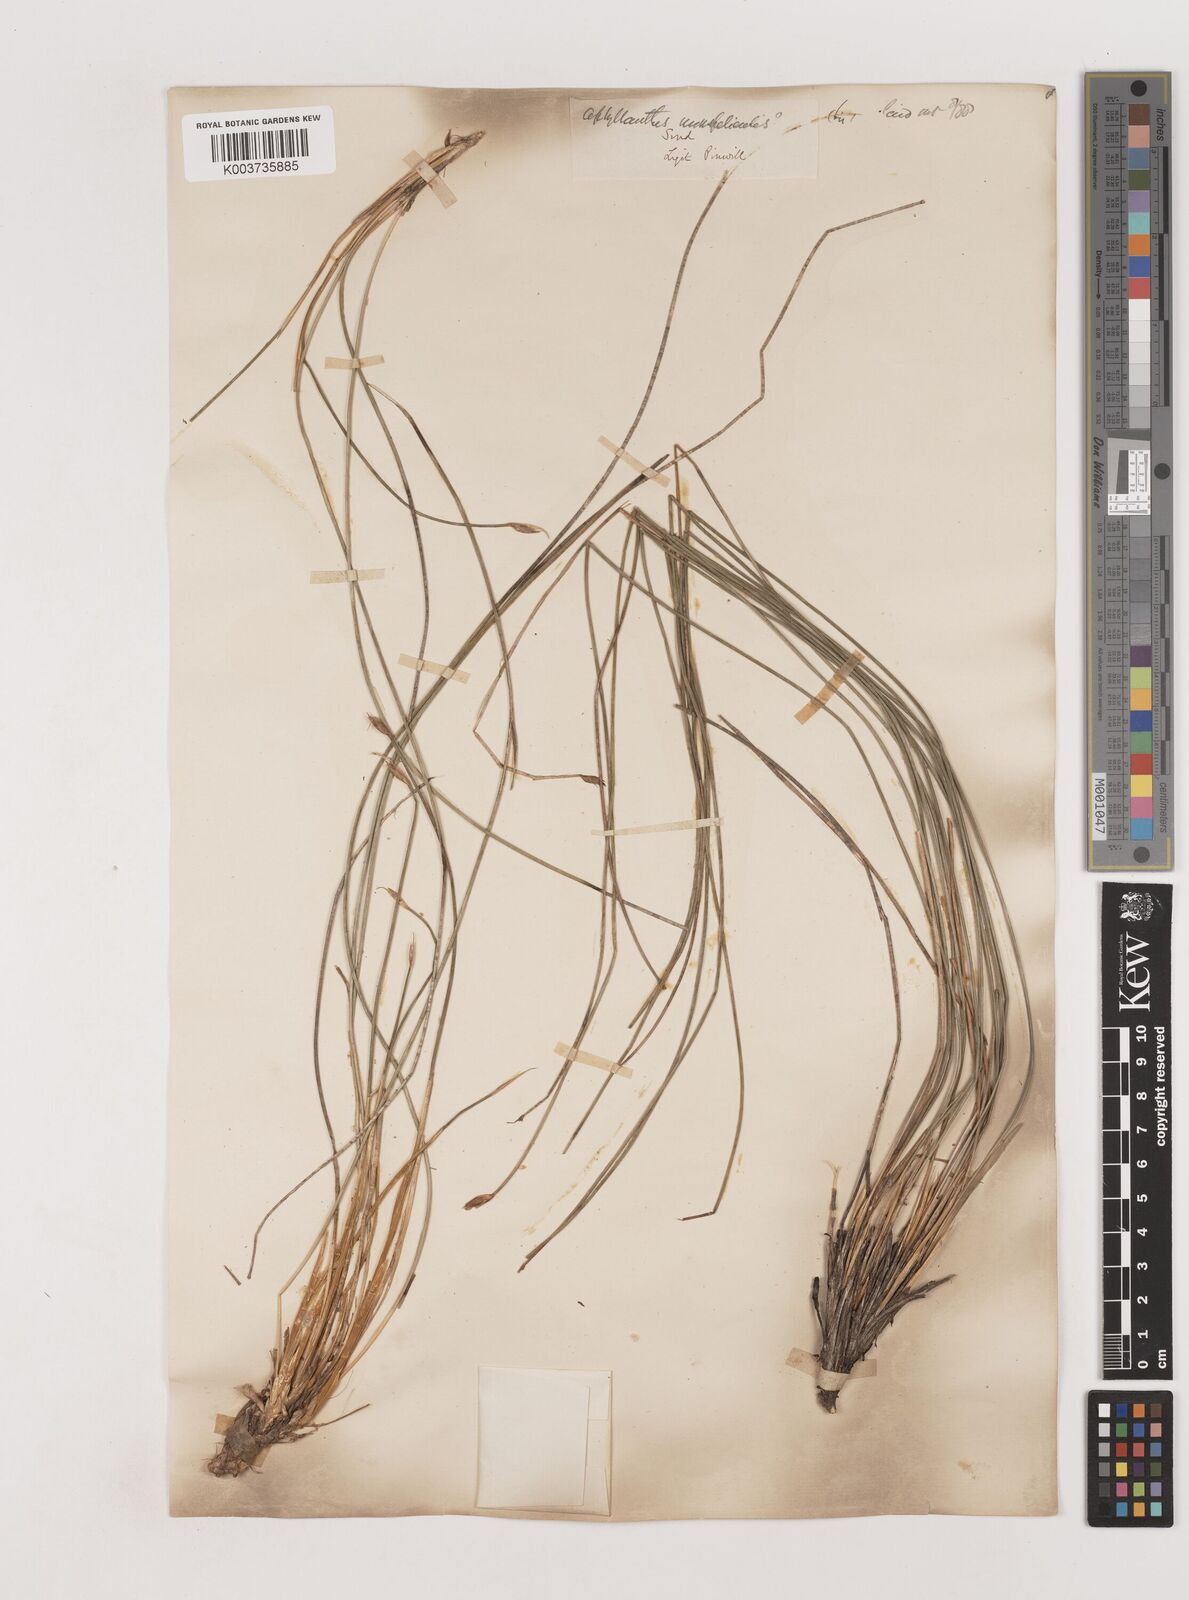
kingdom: Plantae
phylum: Tracheophyta
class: Liliopsida
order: Asparagales
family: Asparagaceae
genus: Aphyllanthes
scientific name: Aphyllanthes
